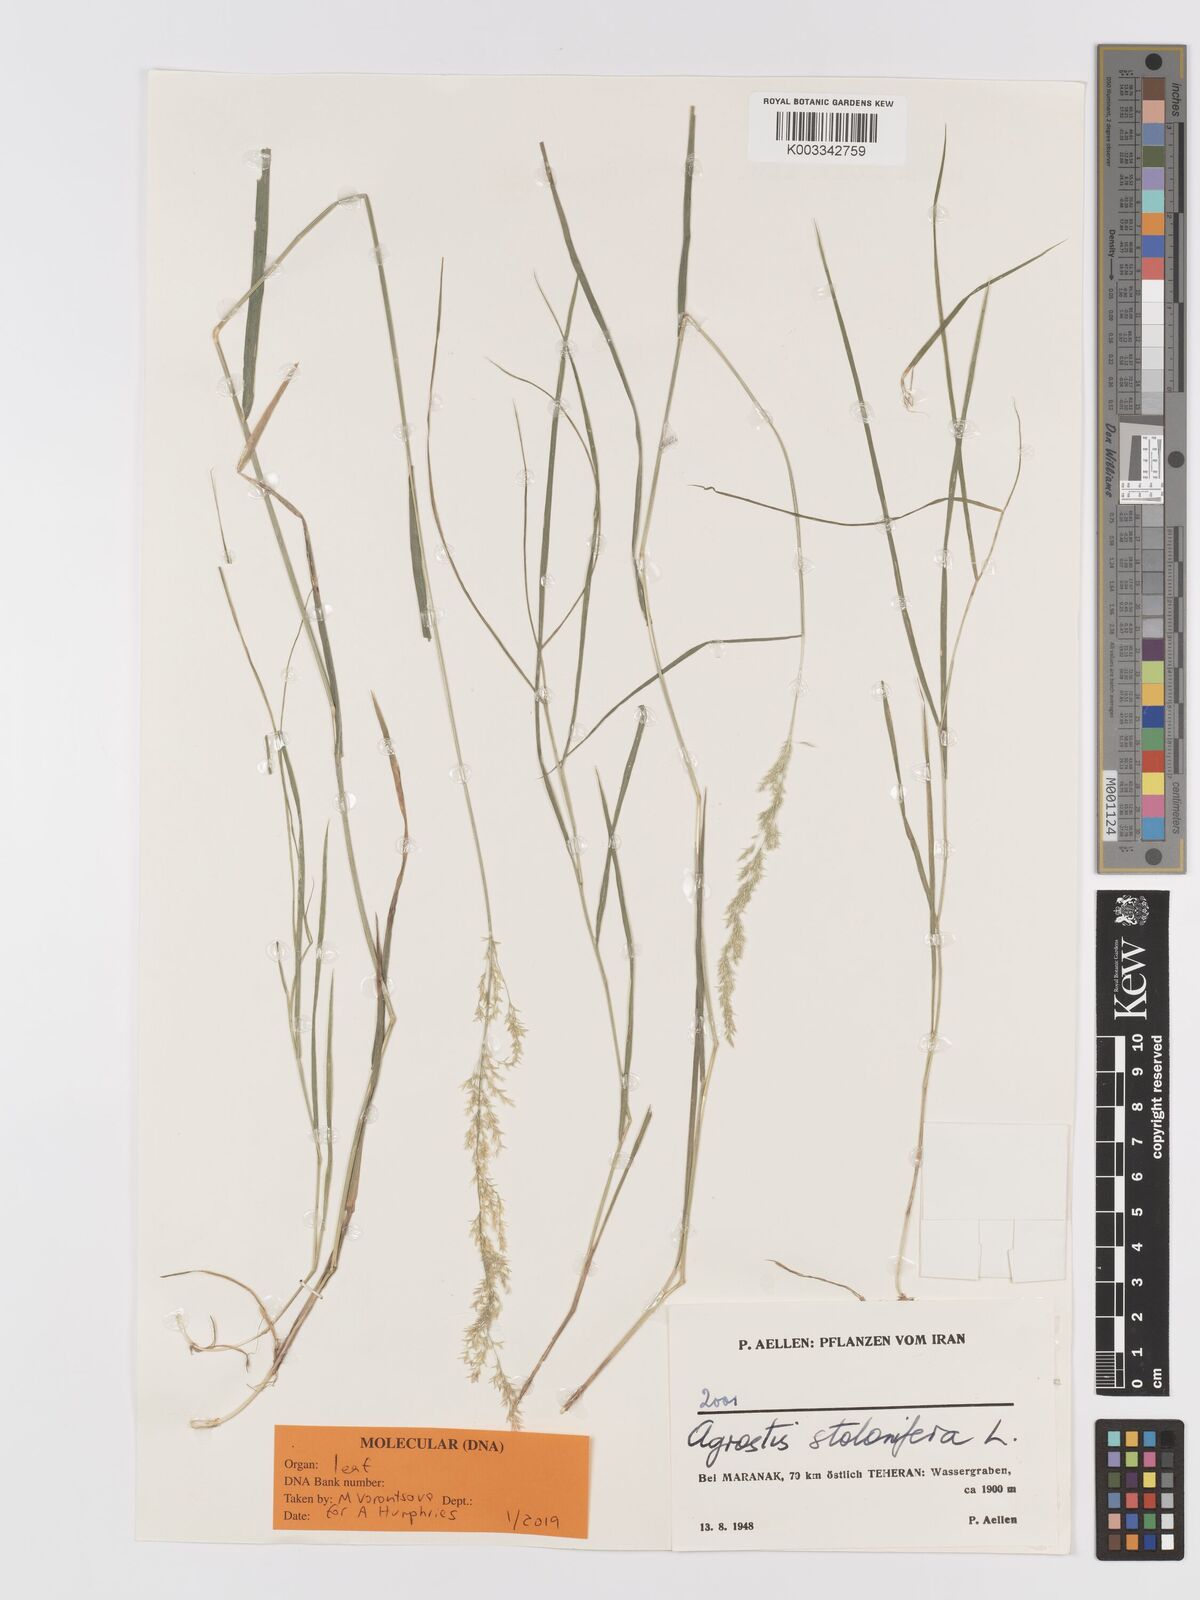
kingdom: Plantae
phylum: Tracheophyta
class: Liliopsida
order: Poales
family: Poaceae
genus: Agrostis
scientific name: Agrostis stolonifera
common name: Creeping bentgrass
